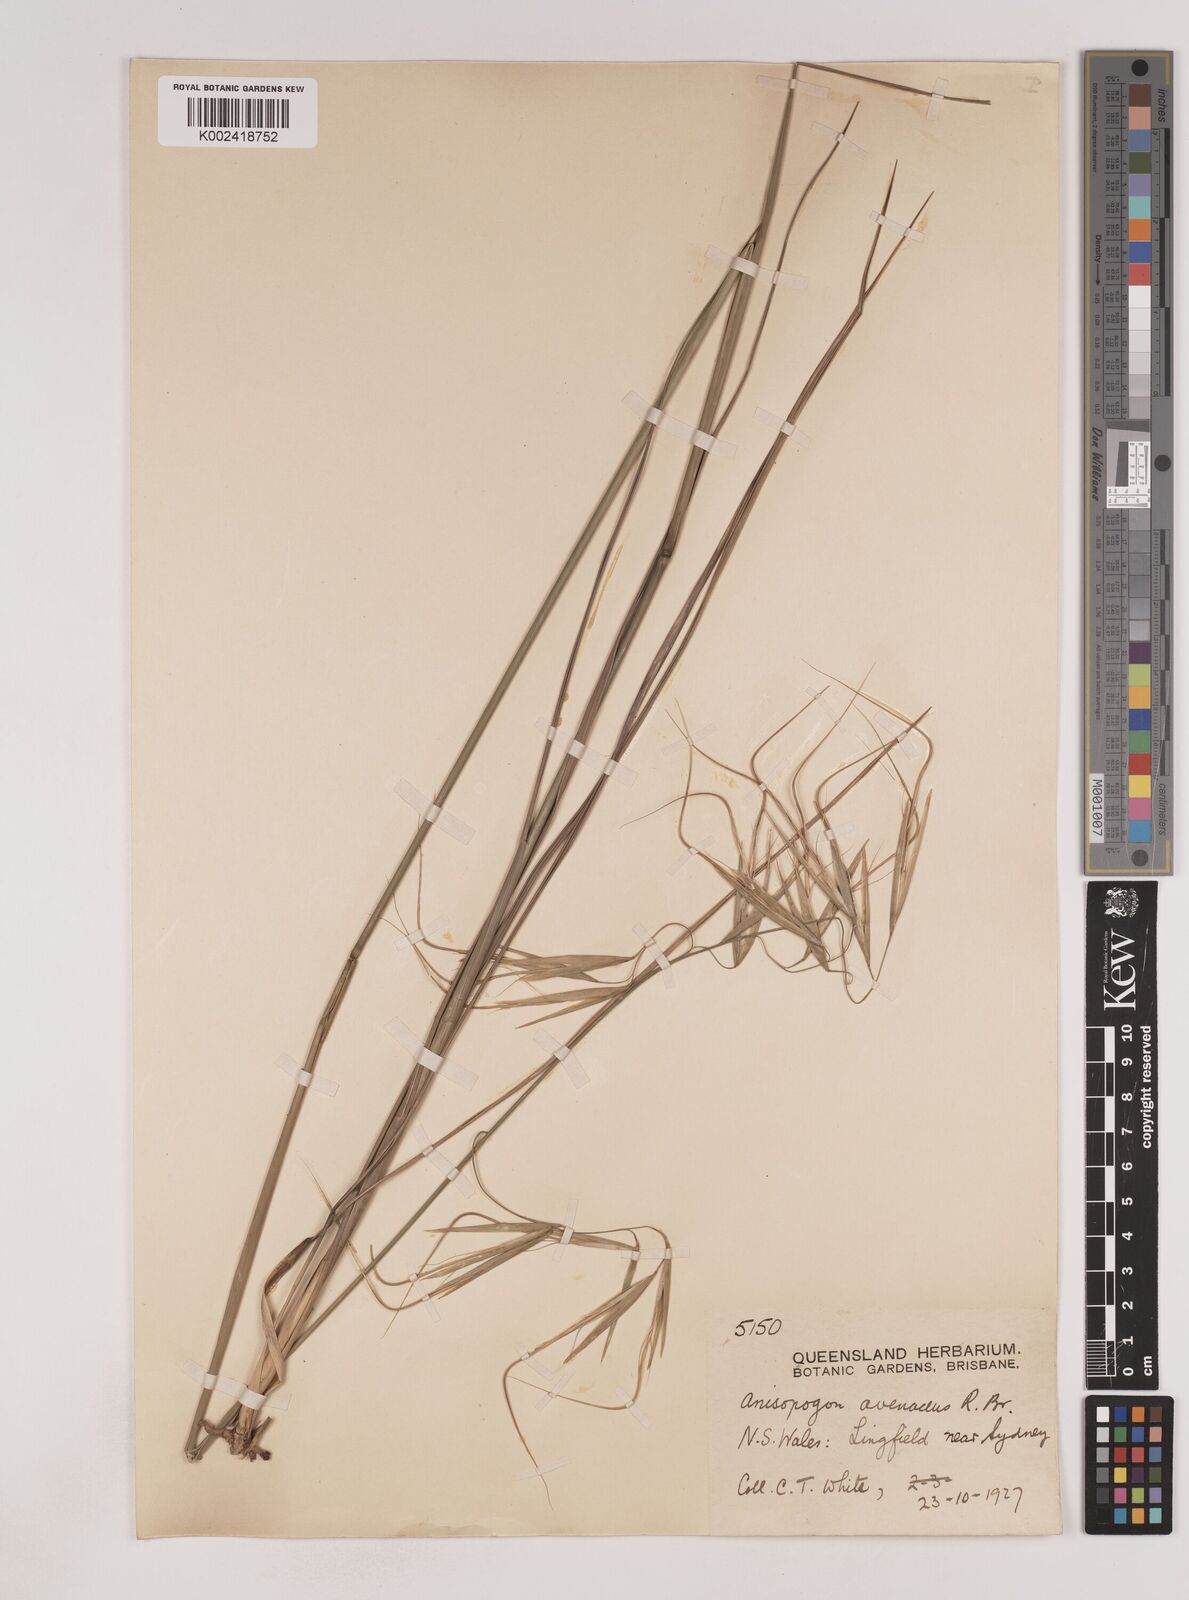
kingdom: Plantae
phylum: Tracheophyta
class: Liliopsida
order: Poales
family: Poaceae
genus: Anisopogon
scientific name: Anisopogon avenaceus
